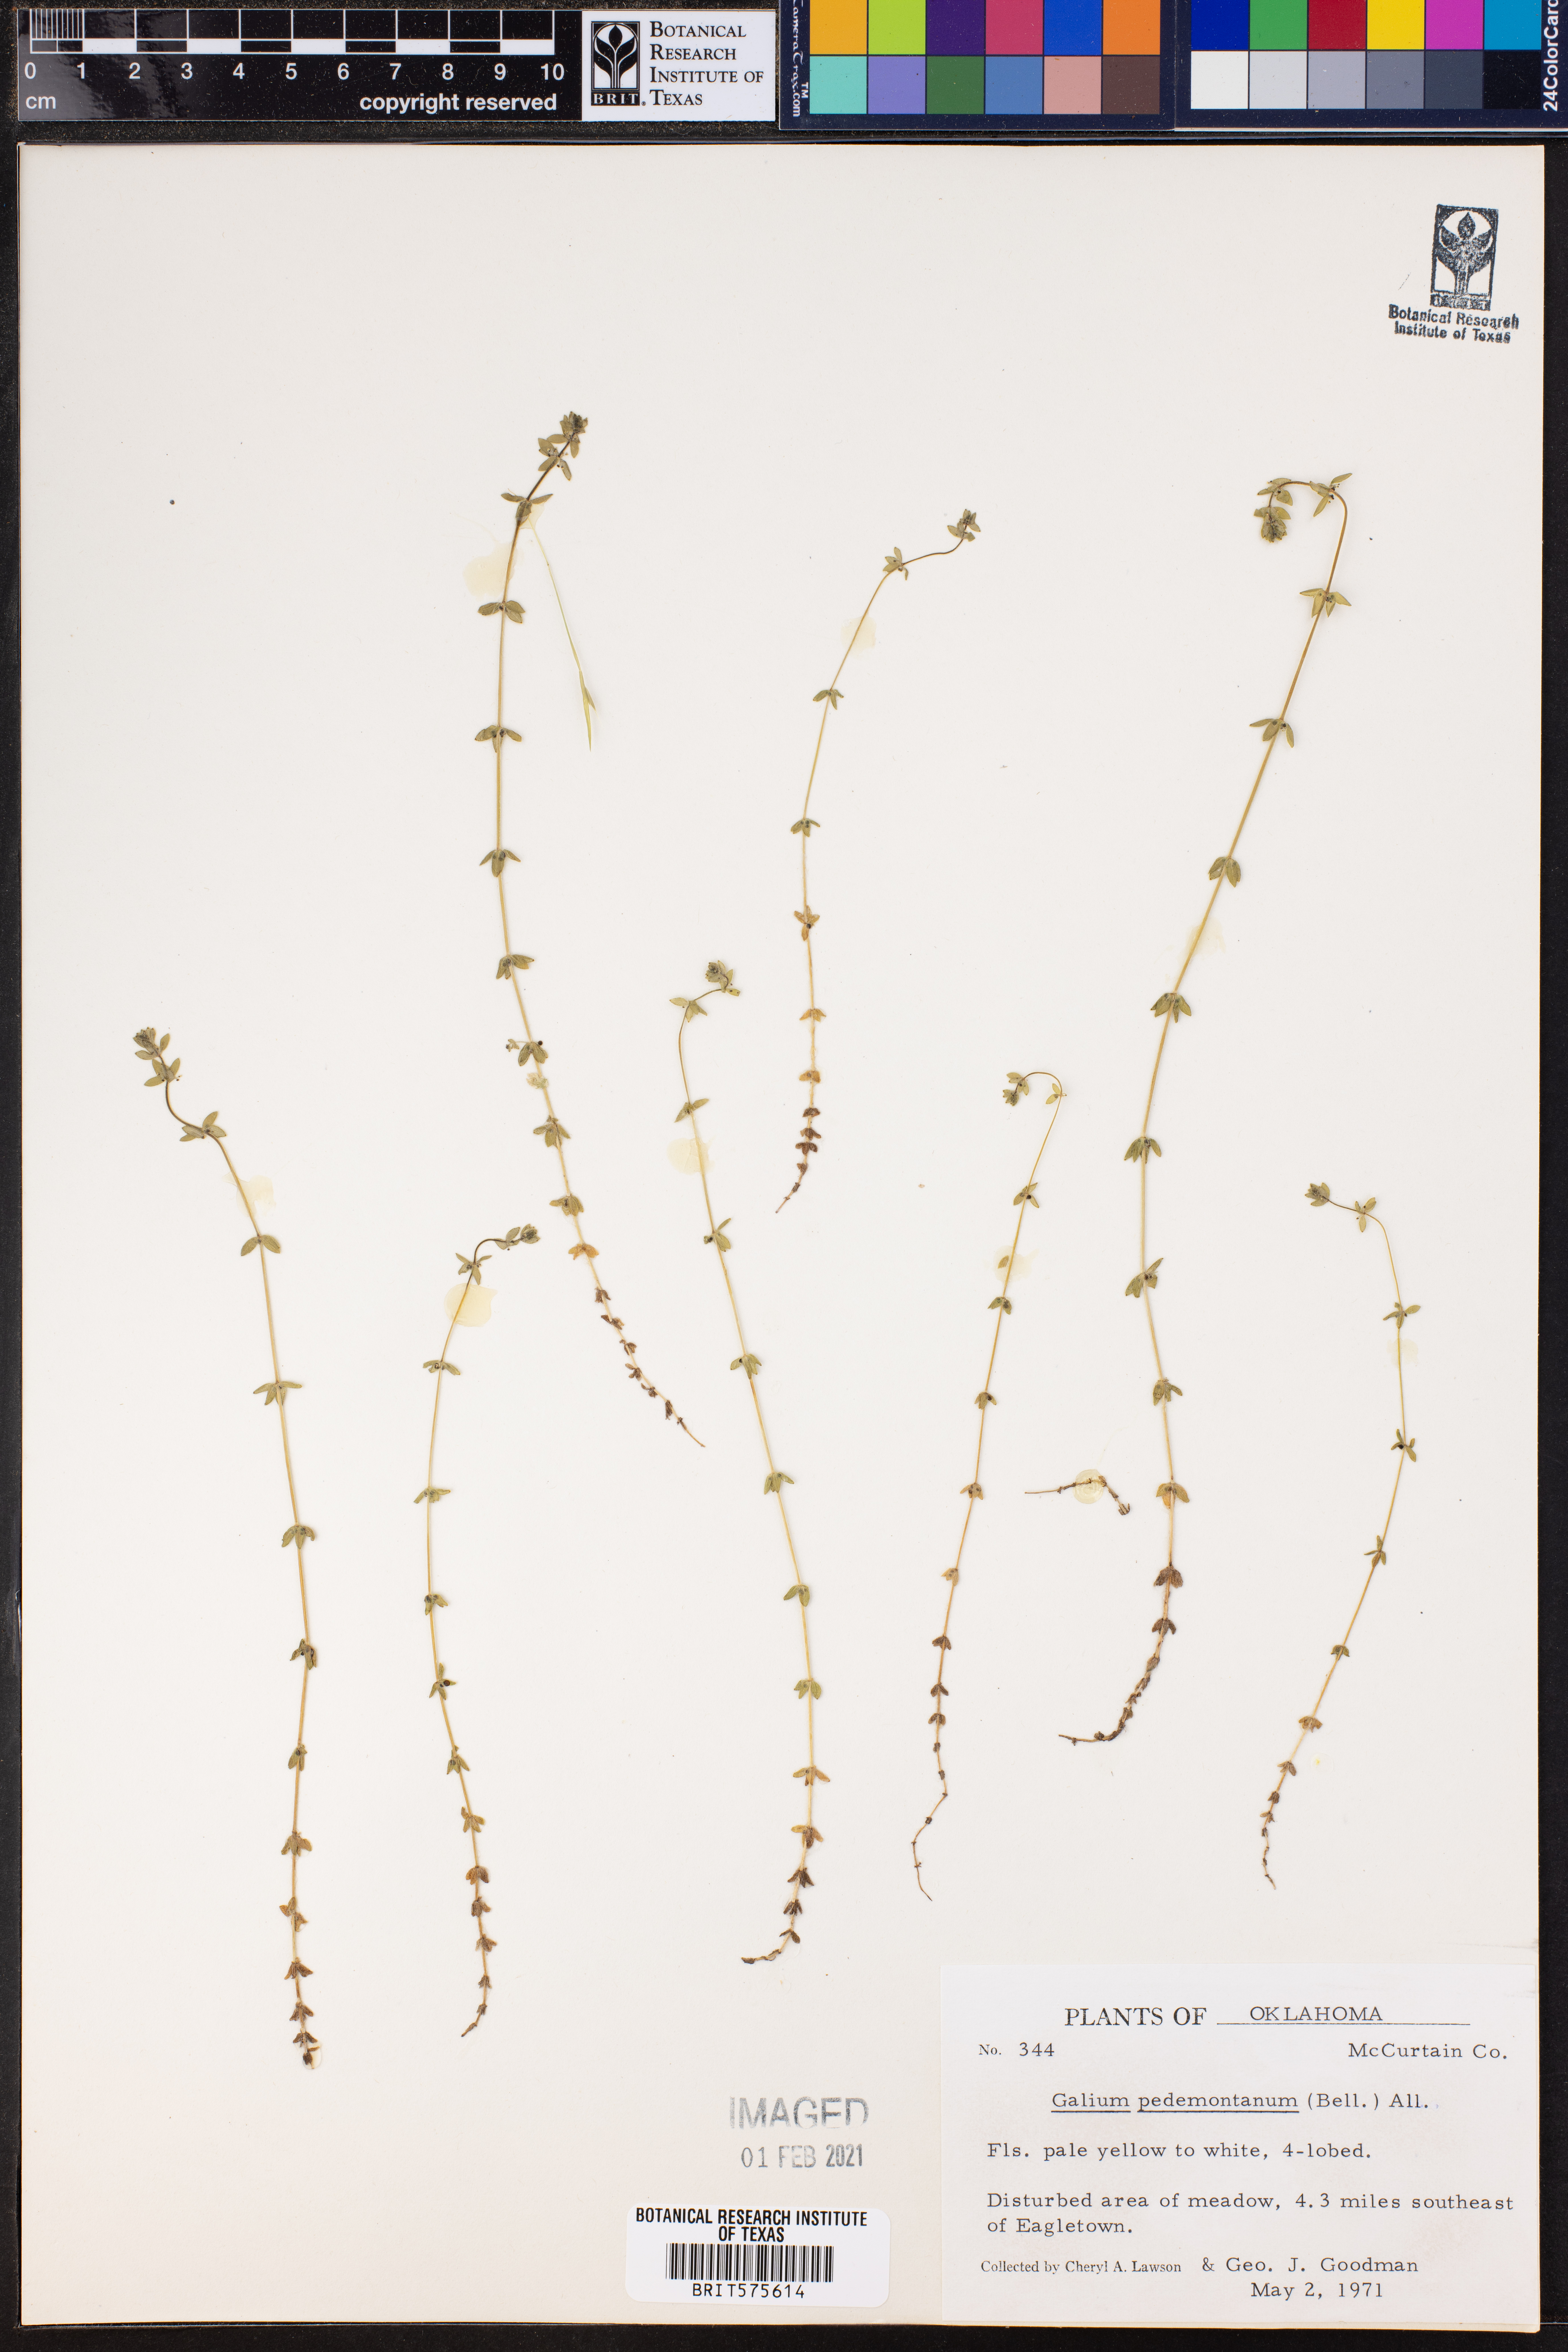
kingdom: Plantae
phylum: Tracheophyta
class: Magnoliopsida
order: Gentianales
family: Rubiaceae
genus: Cruciata
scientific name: Cruciata pedemontana
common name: Piedmont bedstraw
